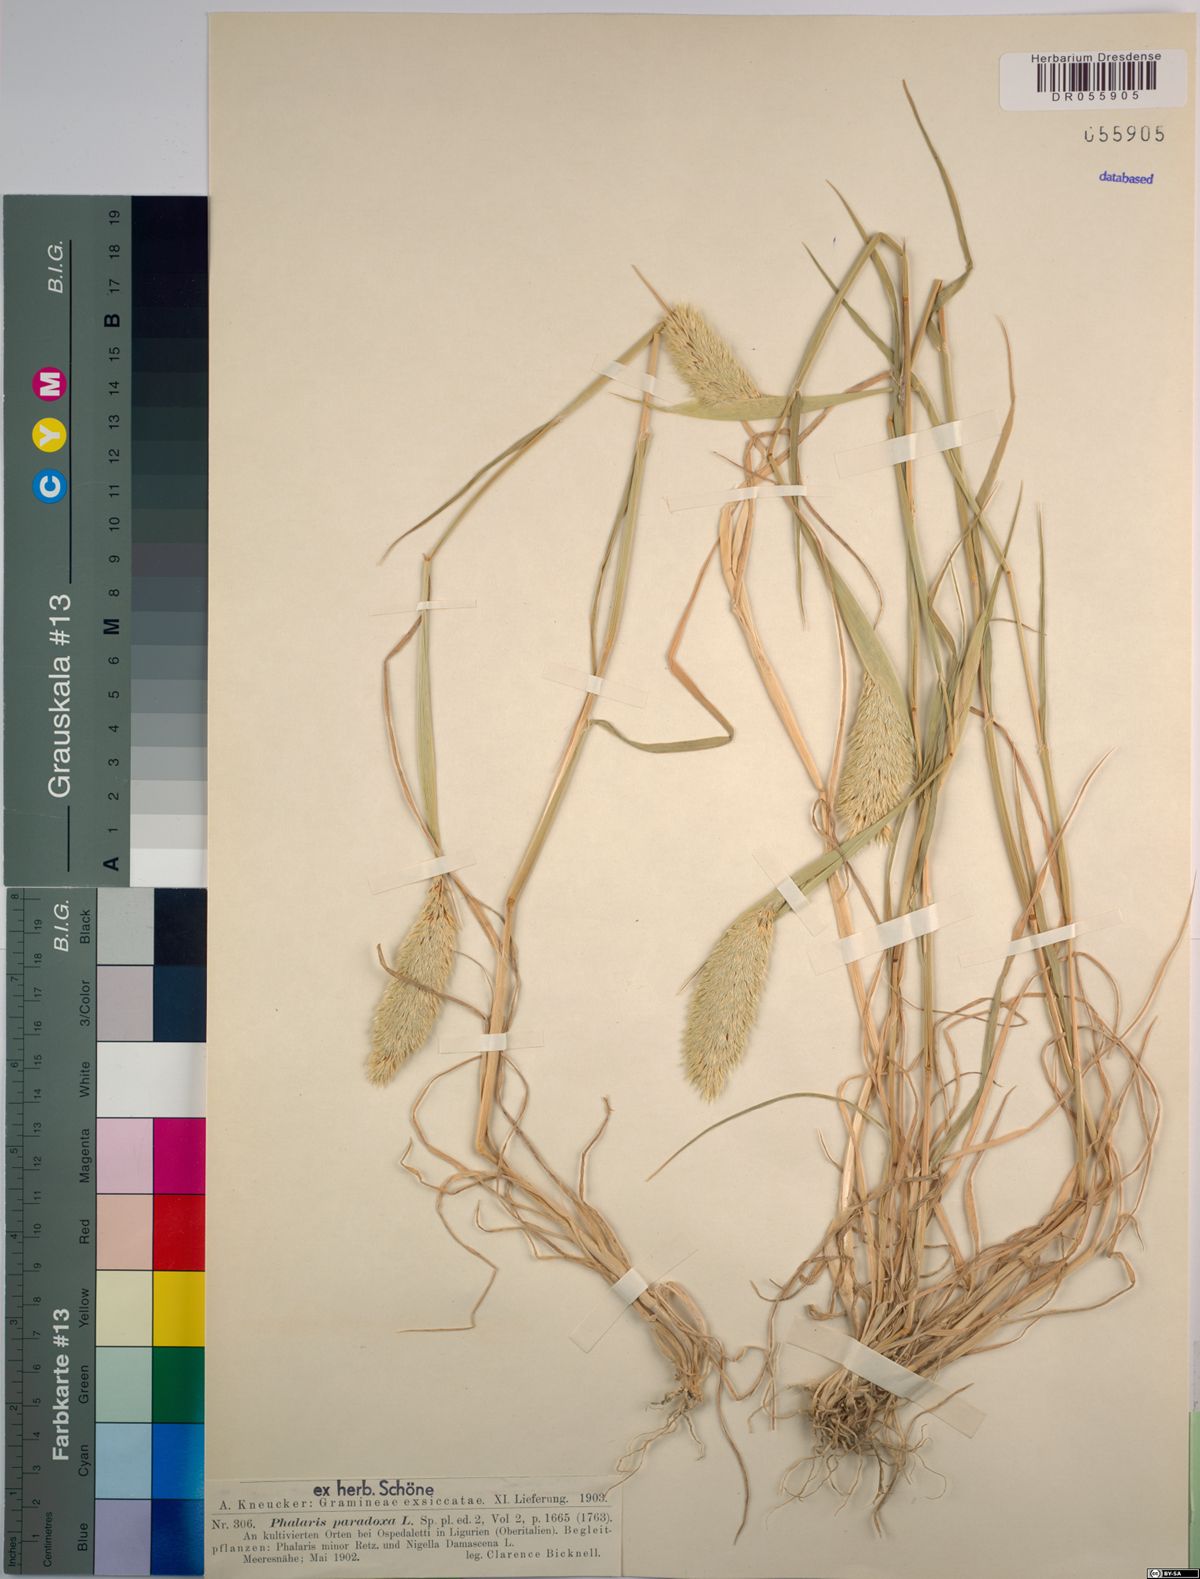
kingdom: Plantae
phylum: Tracheophyta
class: Liliopsida
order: Poales
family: Poaceae
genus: Phalaris
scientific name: Phalaris paradoxa
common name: Awned canary-grass
